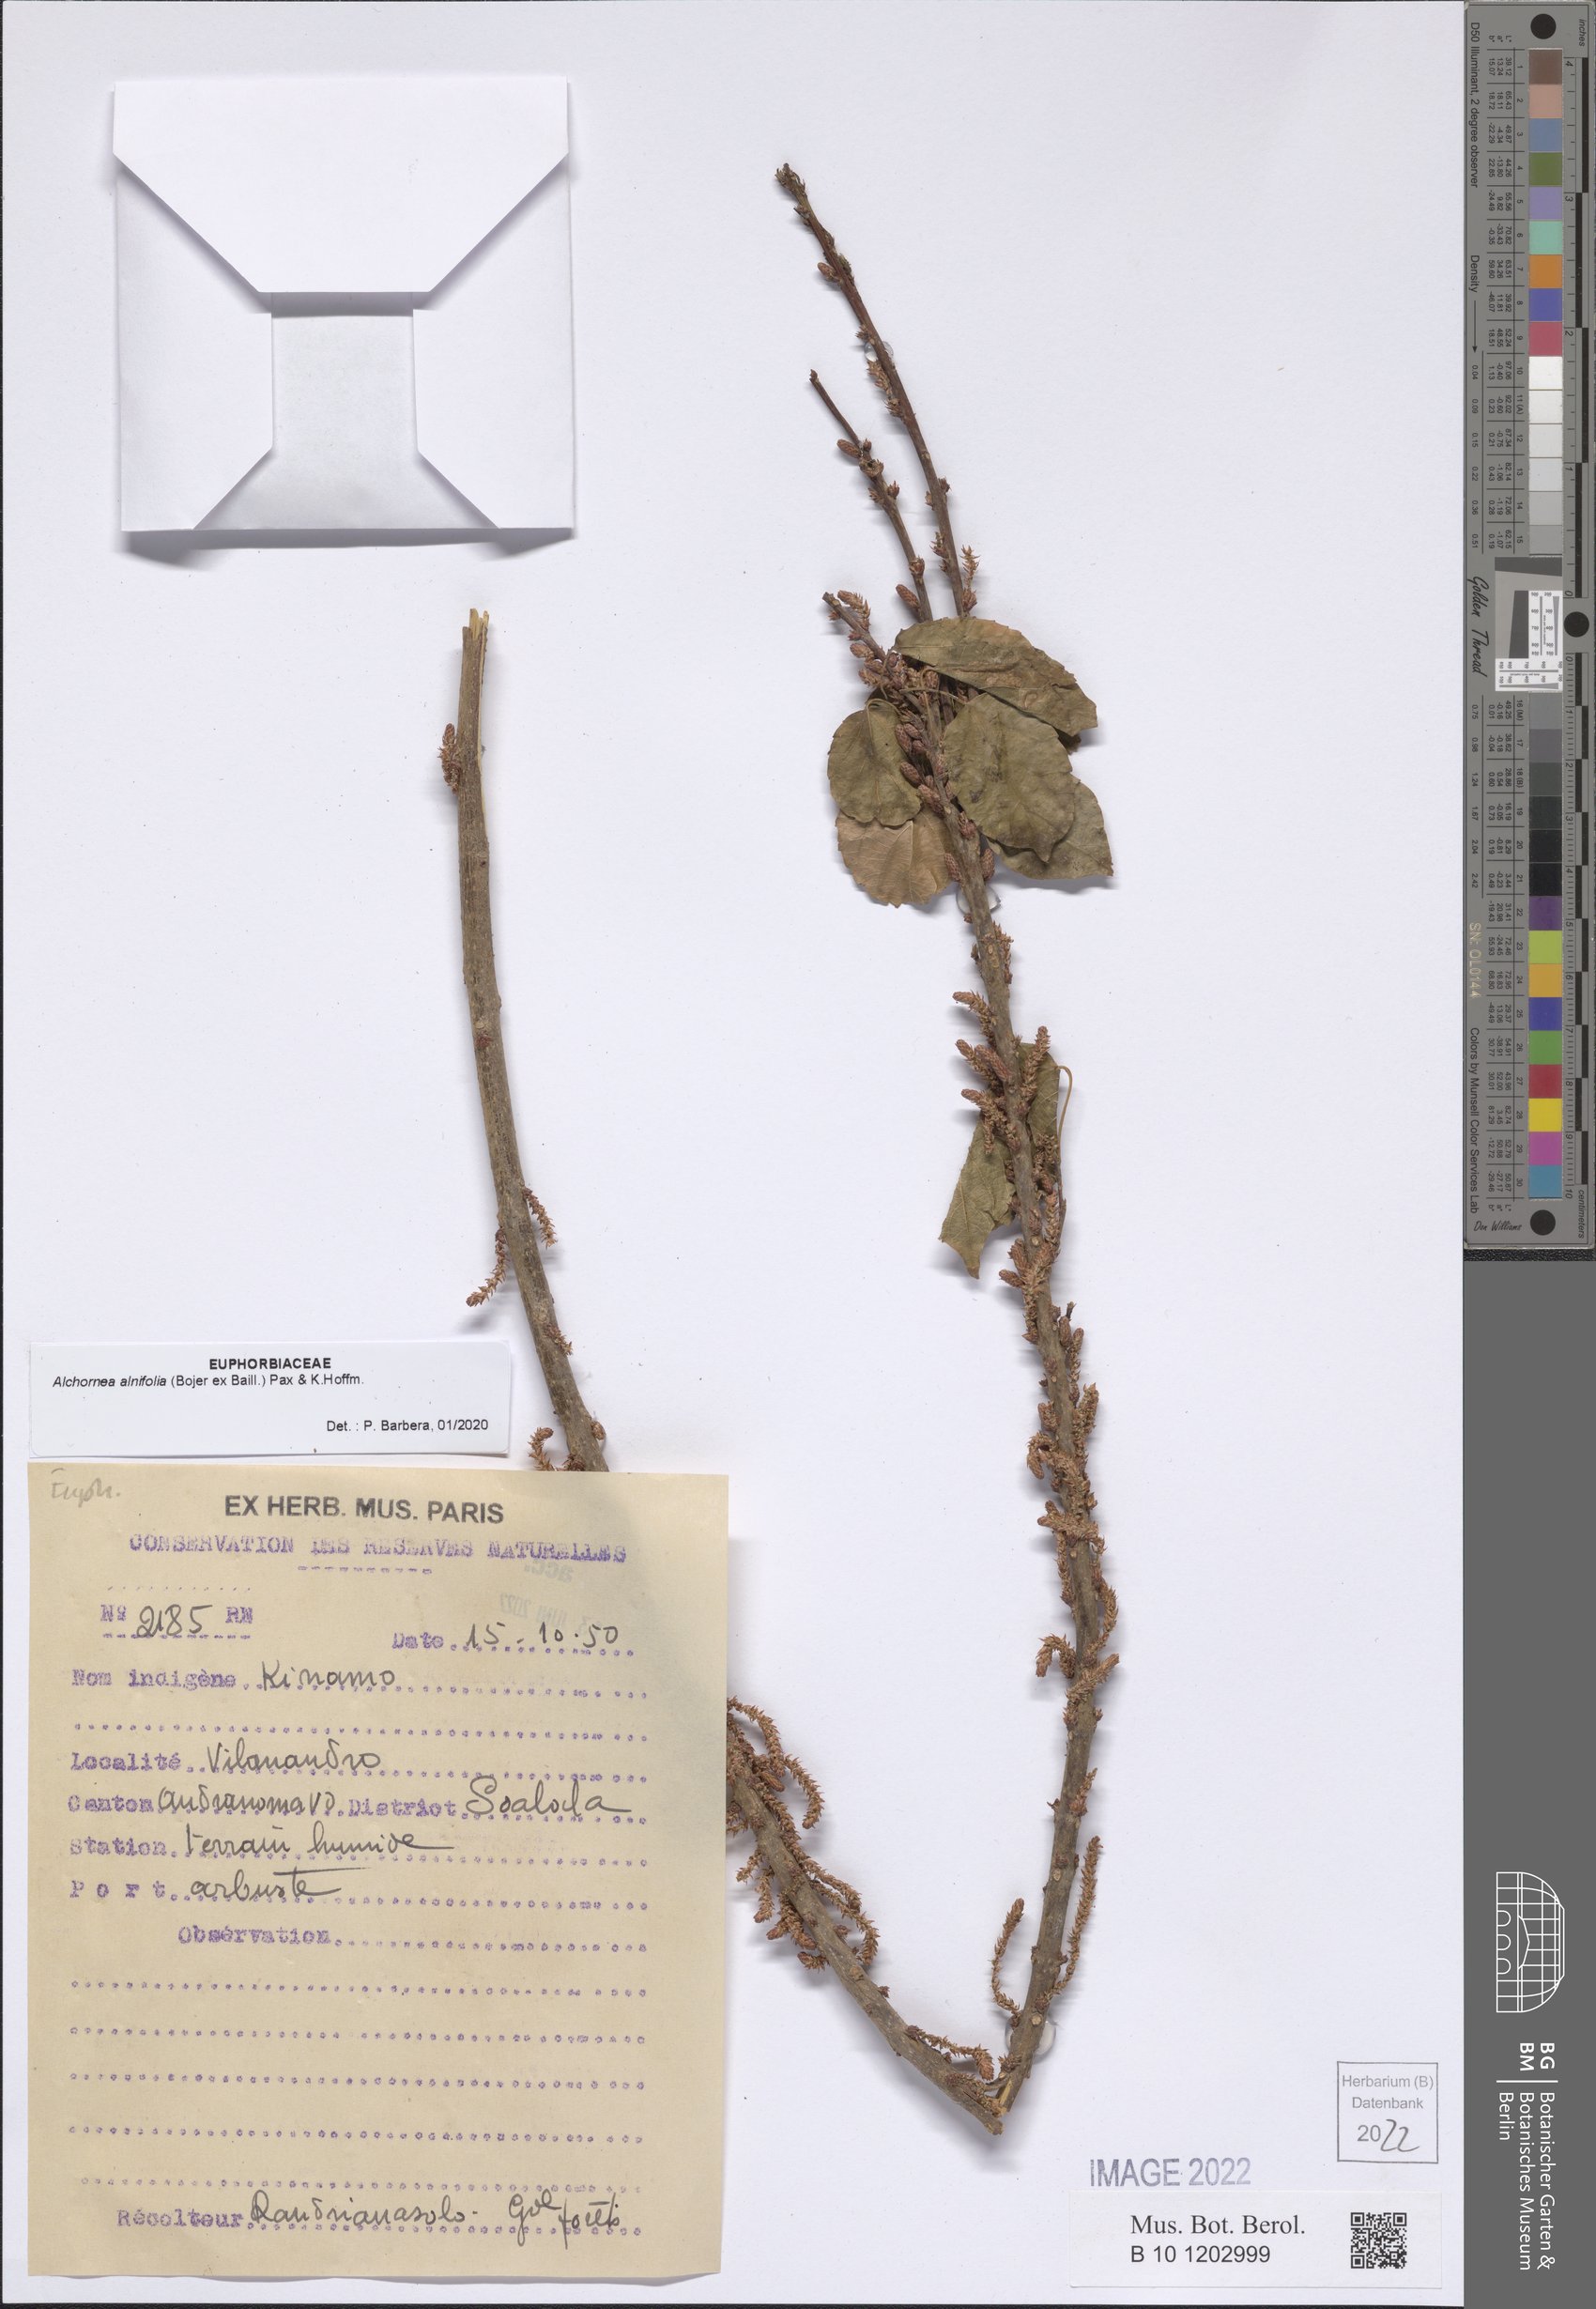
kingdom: Plantae
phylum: Tracheophyta
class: Magnoliopsida
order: Malpighiales
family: Euphorbiaceae
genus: Alchornea
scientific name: Alchornea alnifolia
